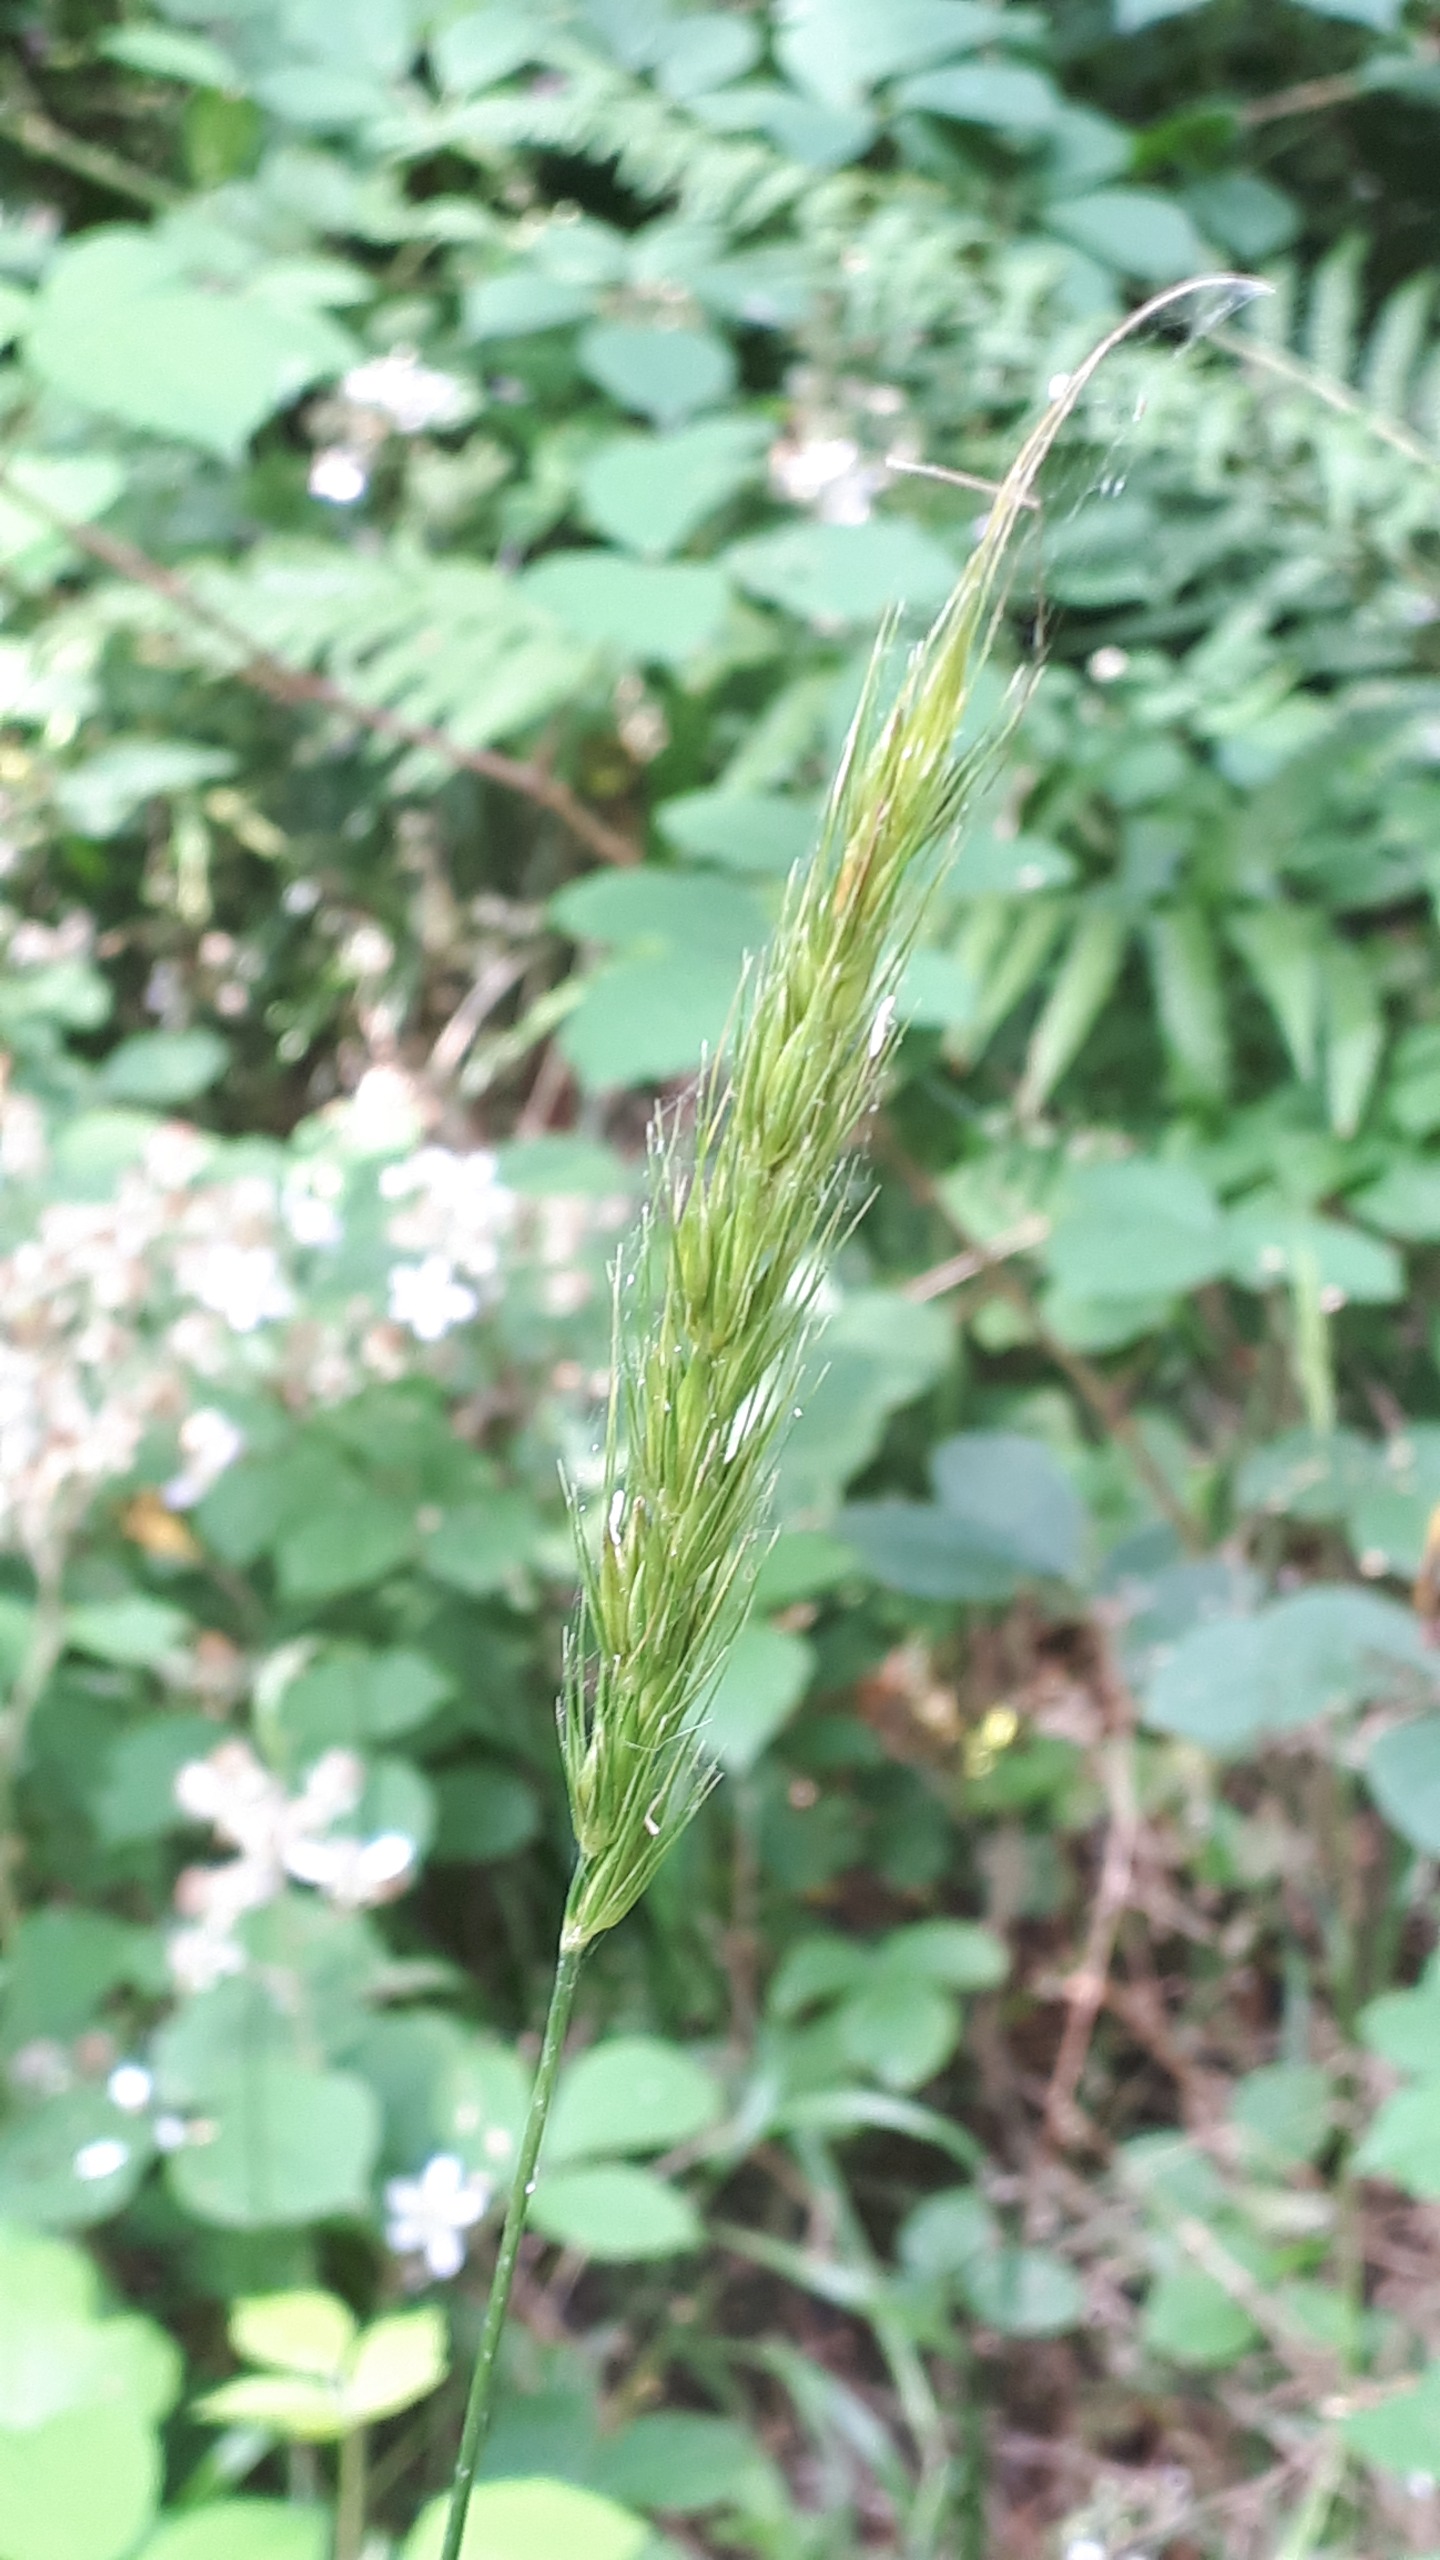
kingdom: Plantae
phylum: Tracheophyta
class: Liliopsida
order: Poales
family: Poaceae
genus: Hordelymus
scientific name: Hordelymus europaeus
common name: Skovbyg
